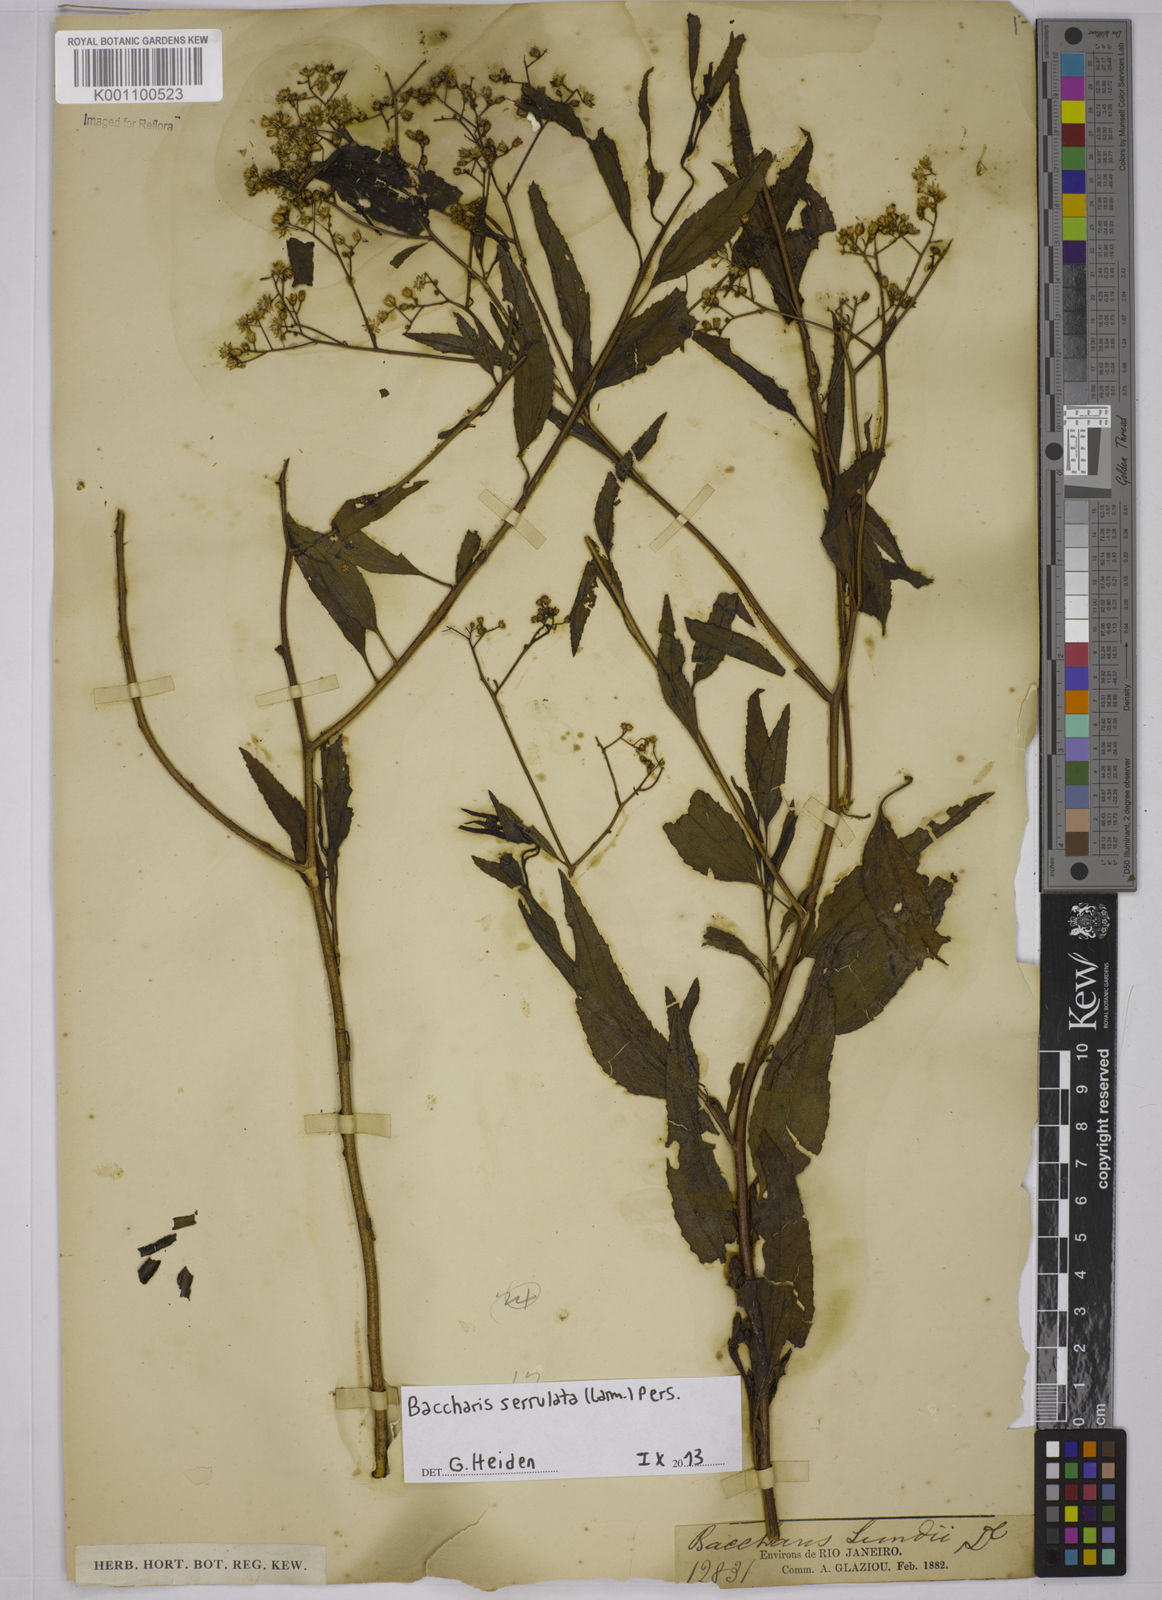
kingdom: Plantae
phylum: Tracheophyta
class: Magnoliopsida
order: Asterales
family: Asteraceae
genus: Baccharis
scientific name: Baccharis serrulata
